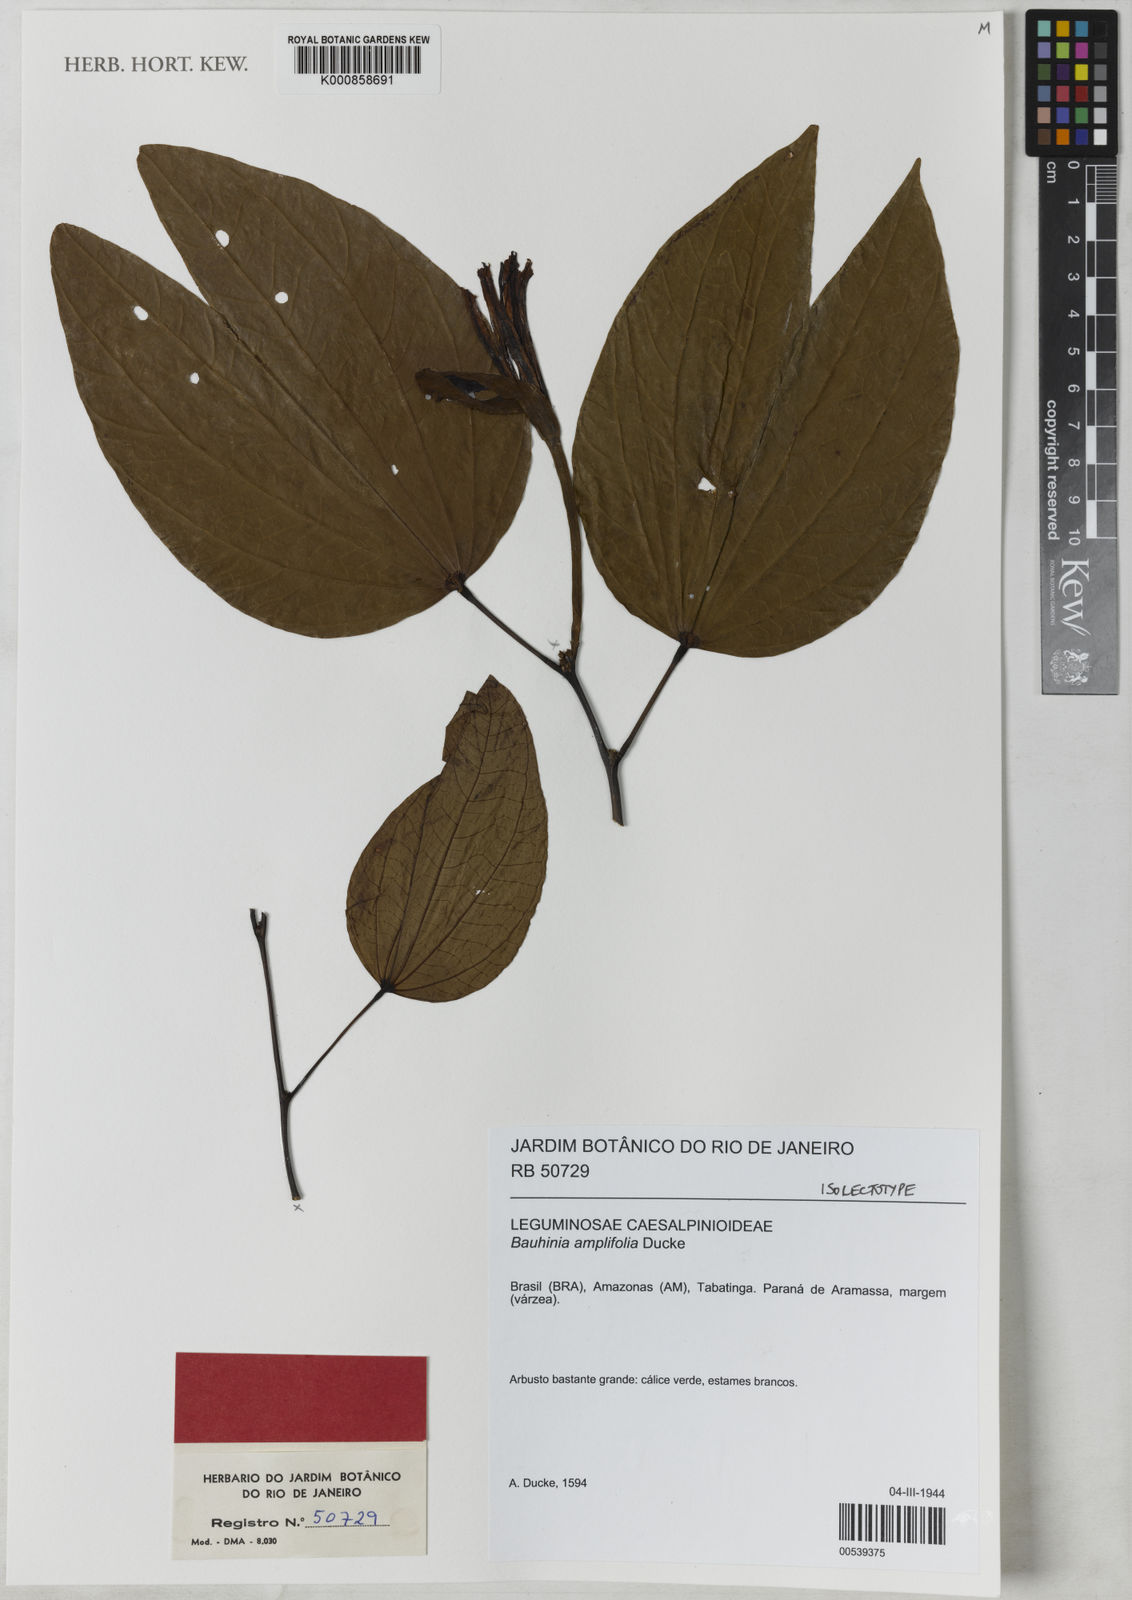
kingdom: Plantae
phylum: Tracheophyta
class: Magnoliopsida
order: Fabales
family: Fabaceae
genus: Bauhinia
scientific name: Bauhinia tarapotensis
